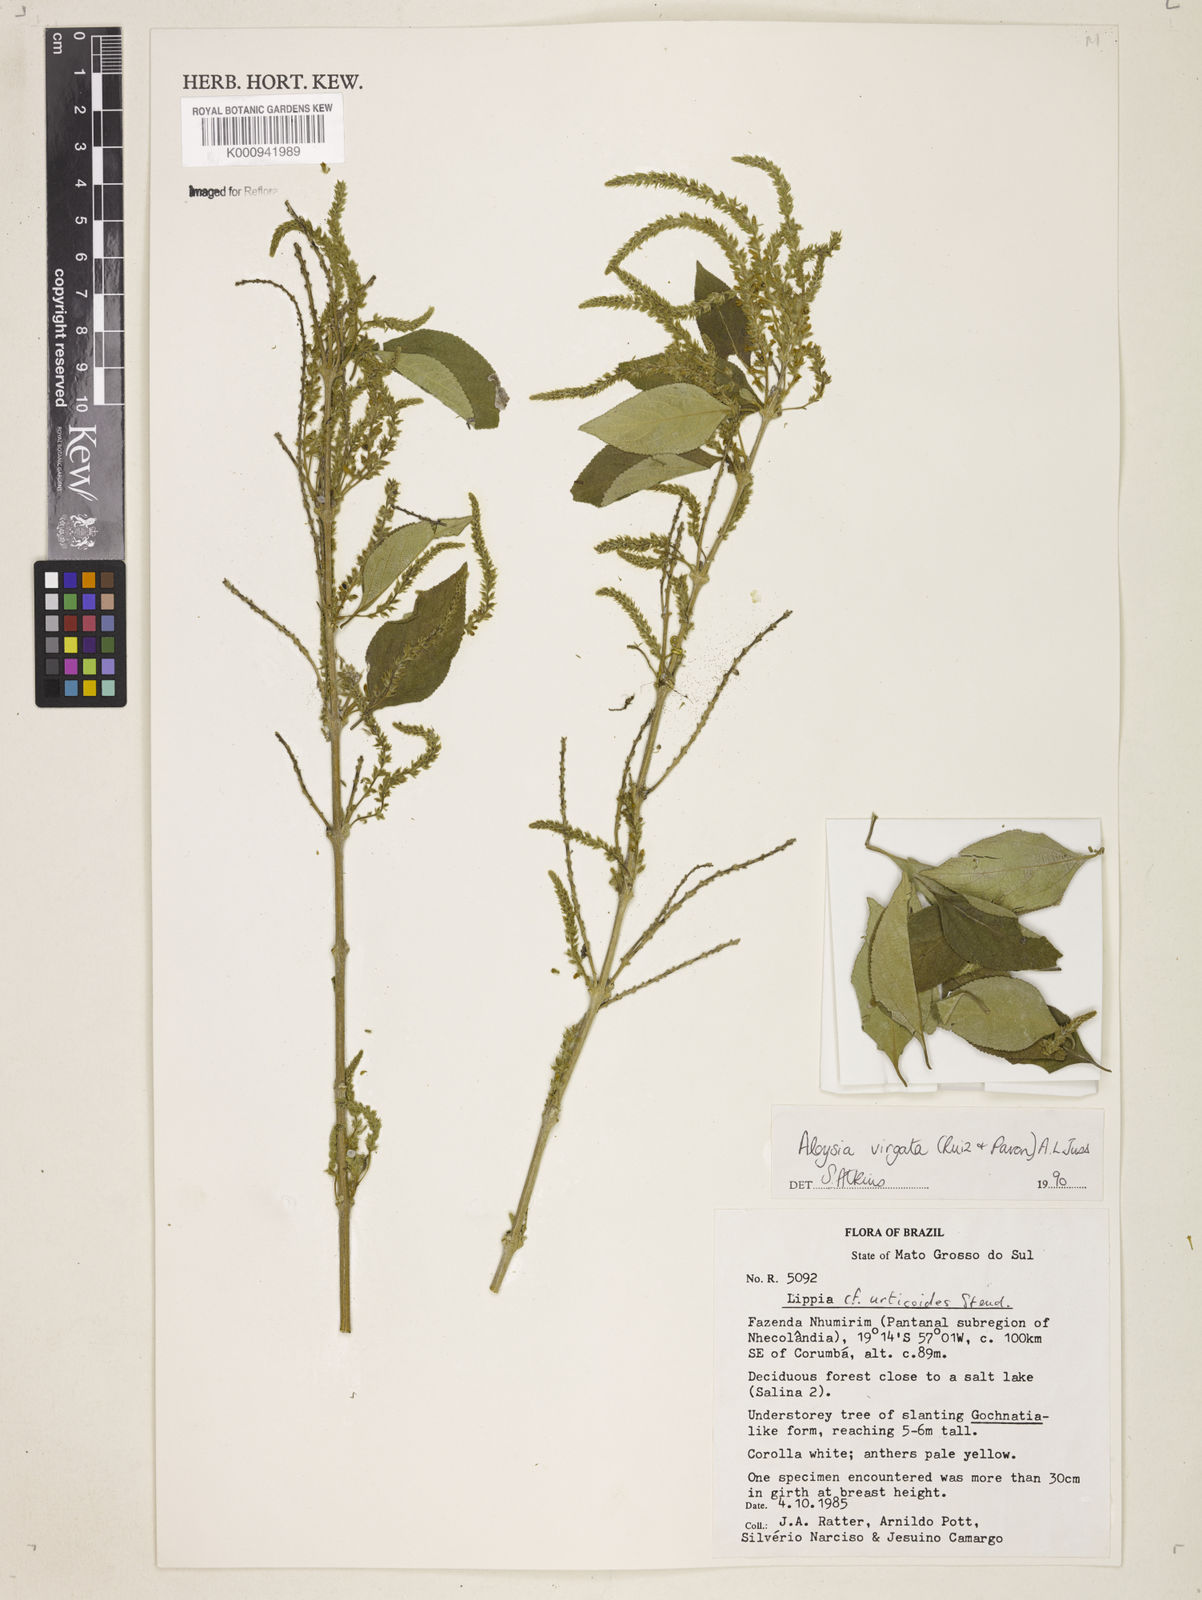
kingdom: Plantae
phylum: Tracheophyta
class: Magnoliopsida
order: Lamiales
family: Verbenaceae
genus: Aloysia
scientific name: Aloysia
